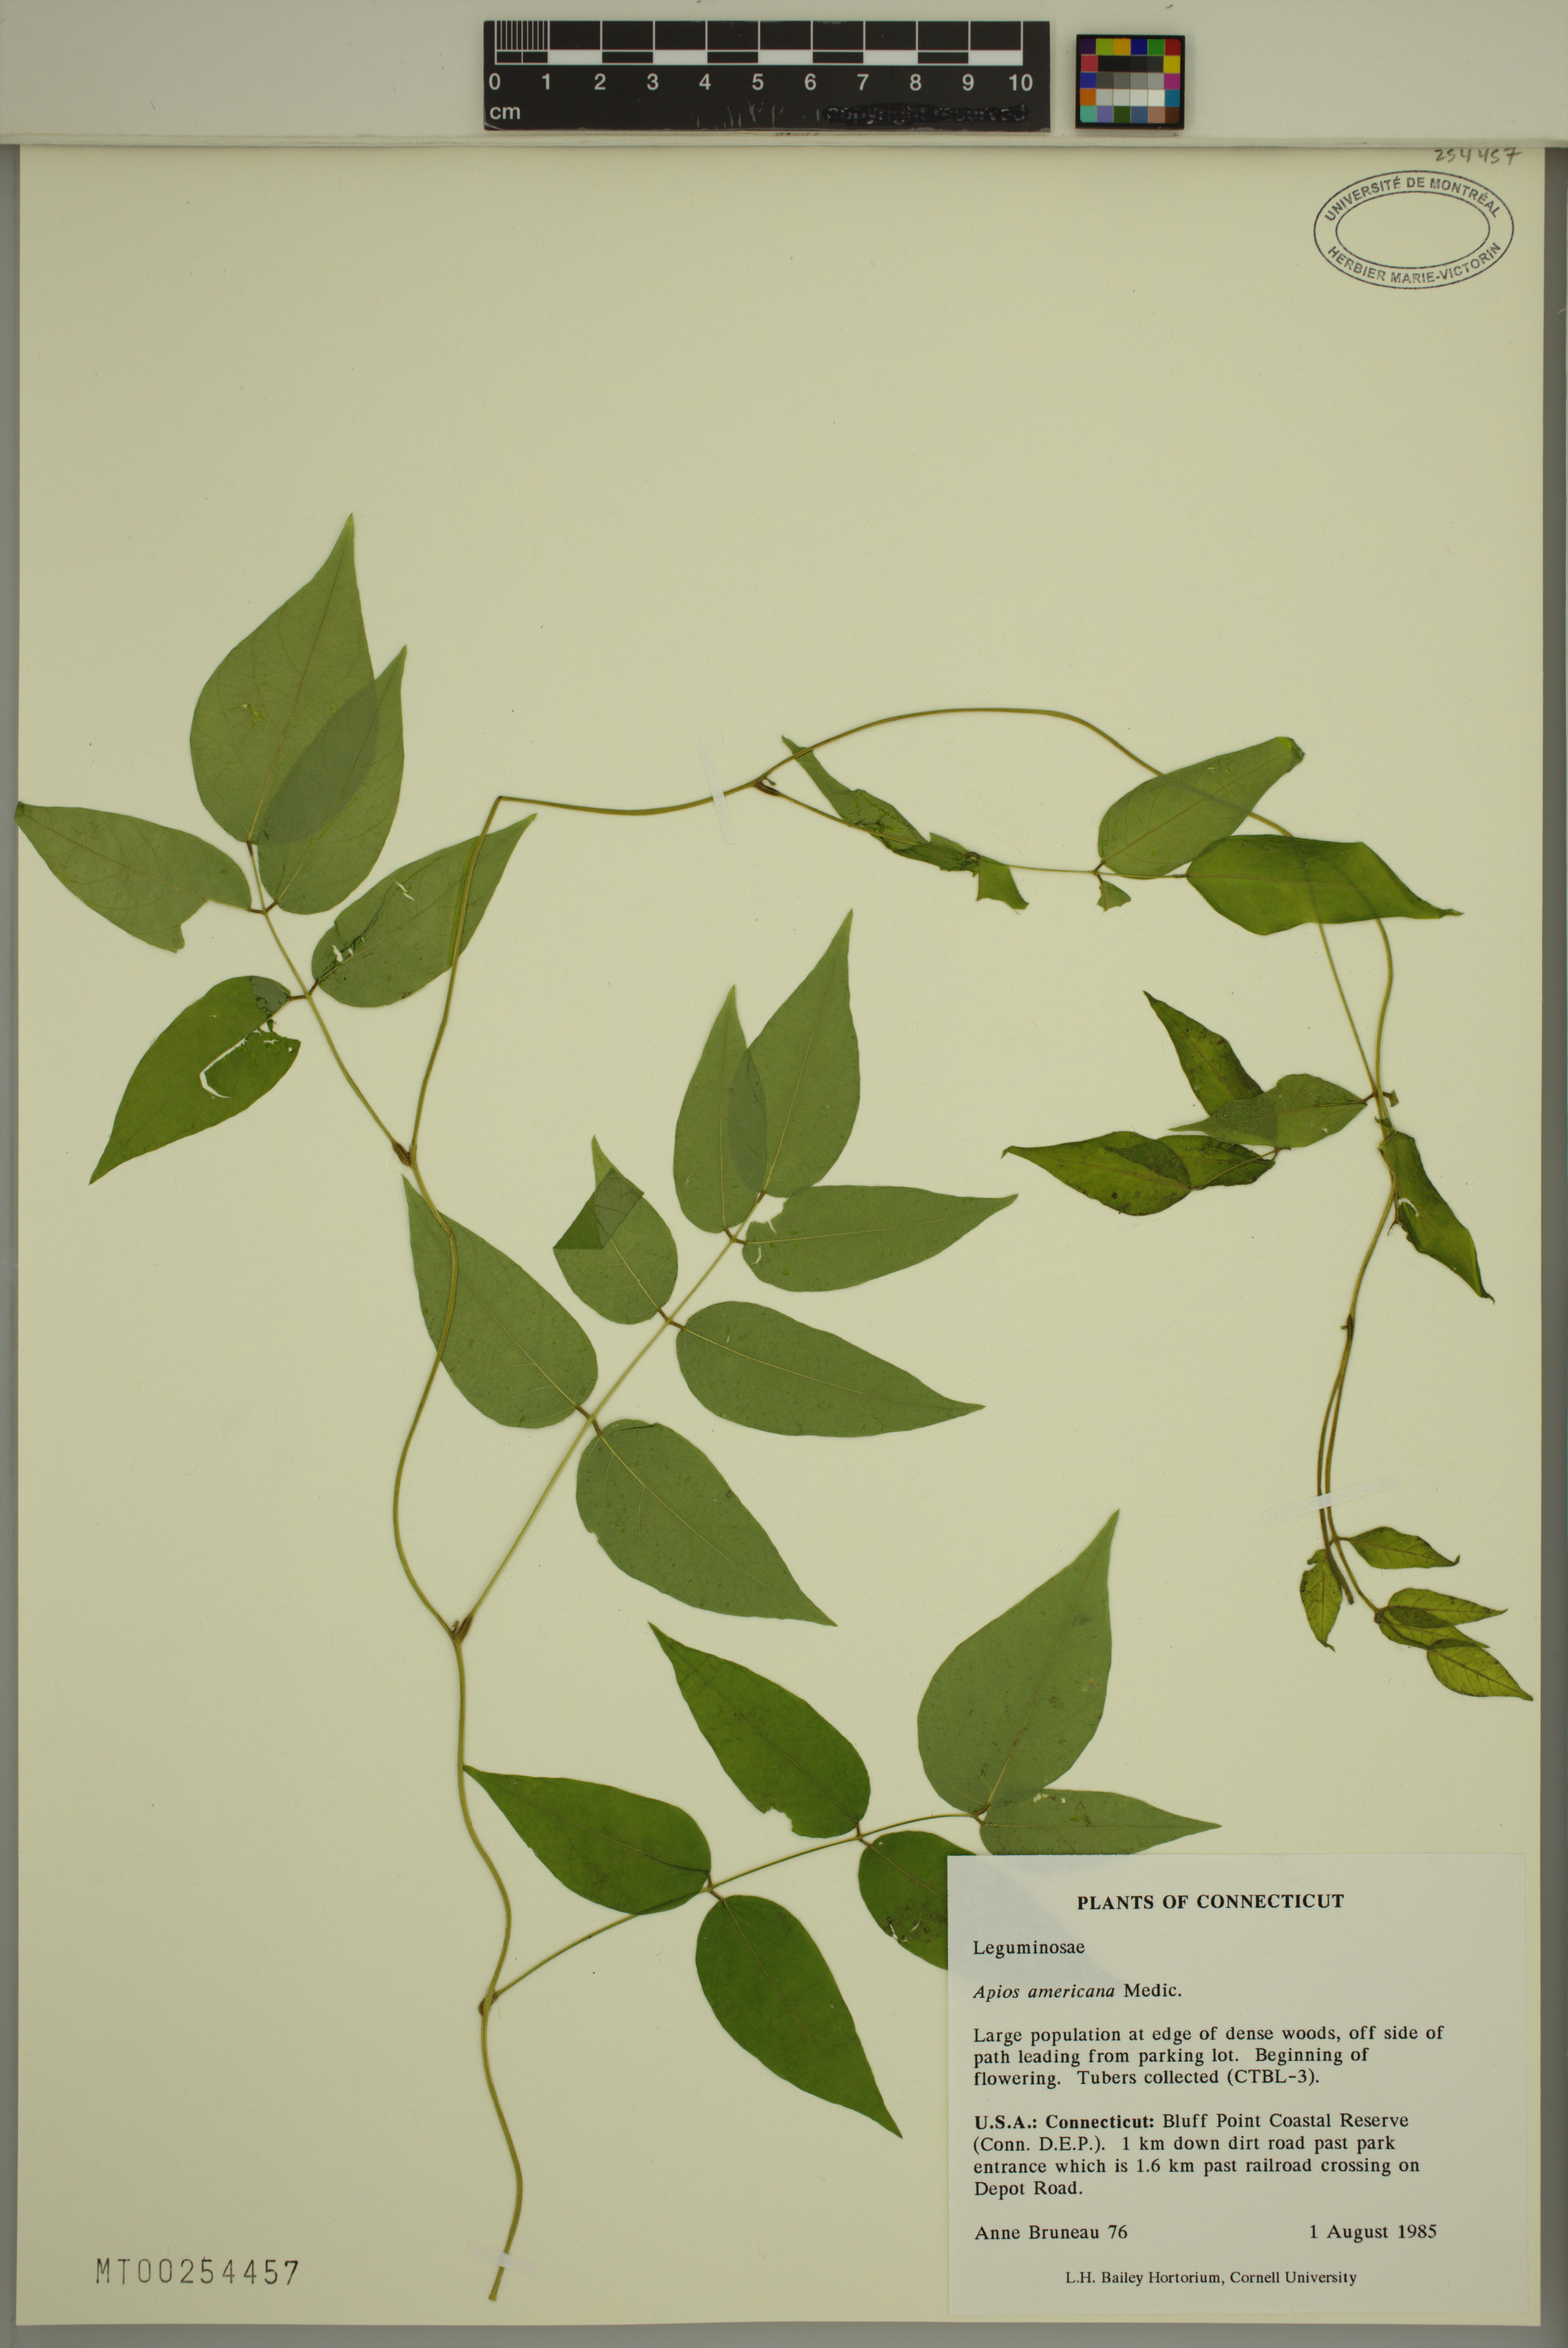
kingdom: Plantae
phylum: Tracheophyta
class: Magnoliopsida
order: Fabales
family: Fabaceae
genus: Apios
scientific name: Apios americana
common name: American potato-bean
